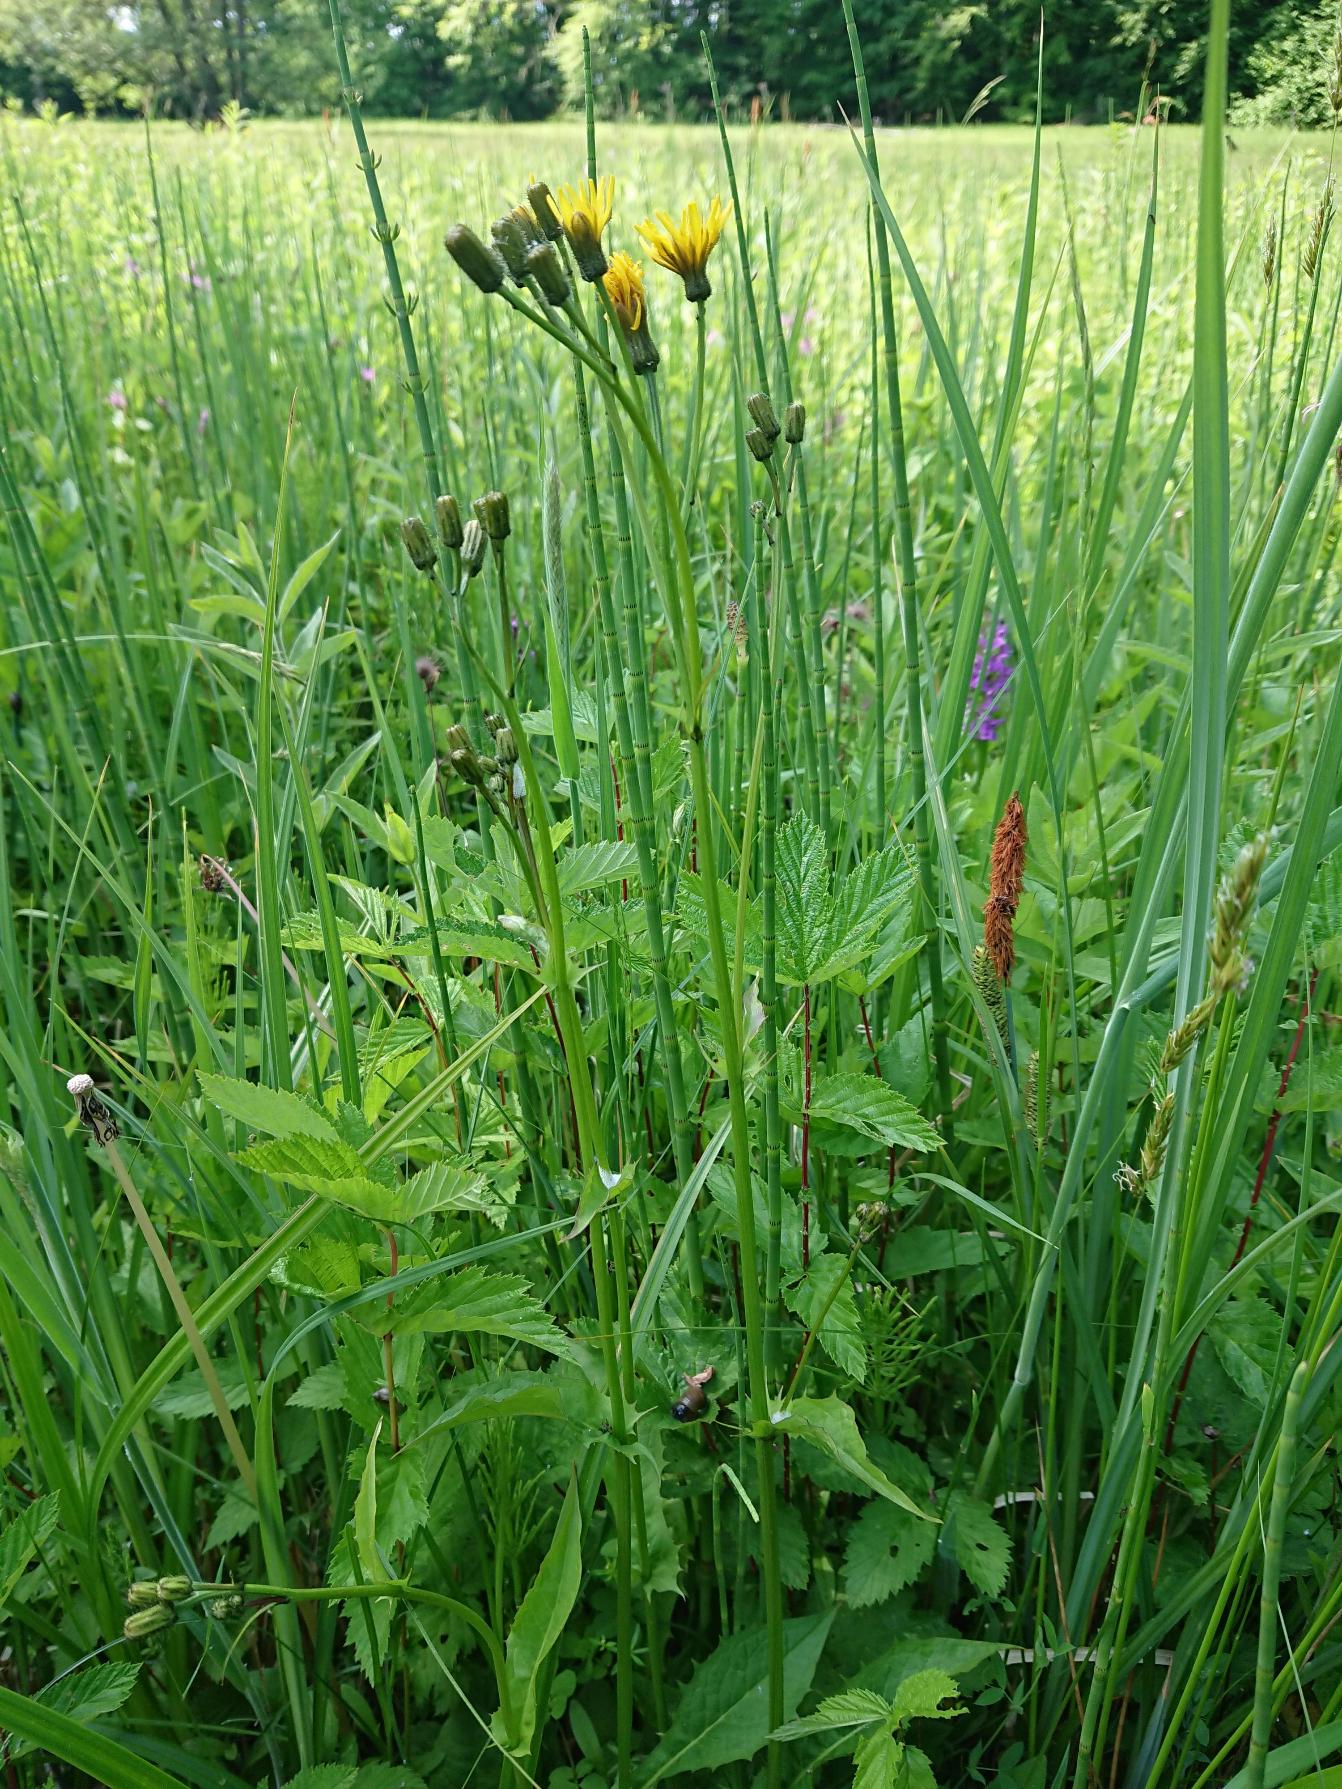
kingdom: Plantae
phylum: Tracheophyta
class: Magnoliopsida
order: Asterales
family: Asteraceae
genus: Crepis
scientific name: Crepis paludosa
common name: Kær-høgeskæg
